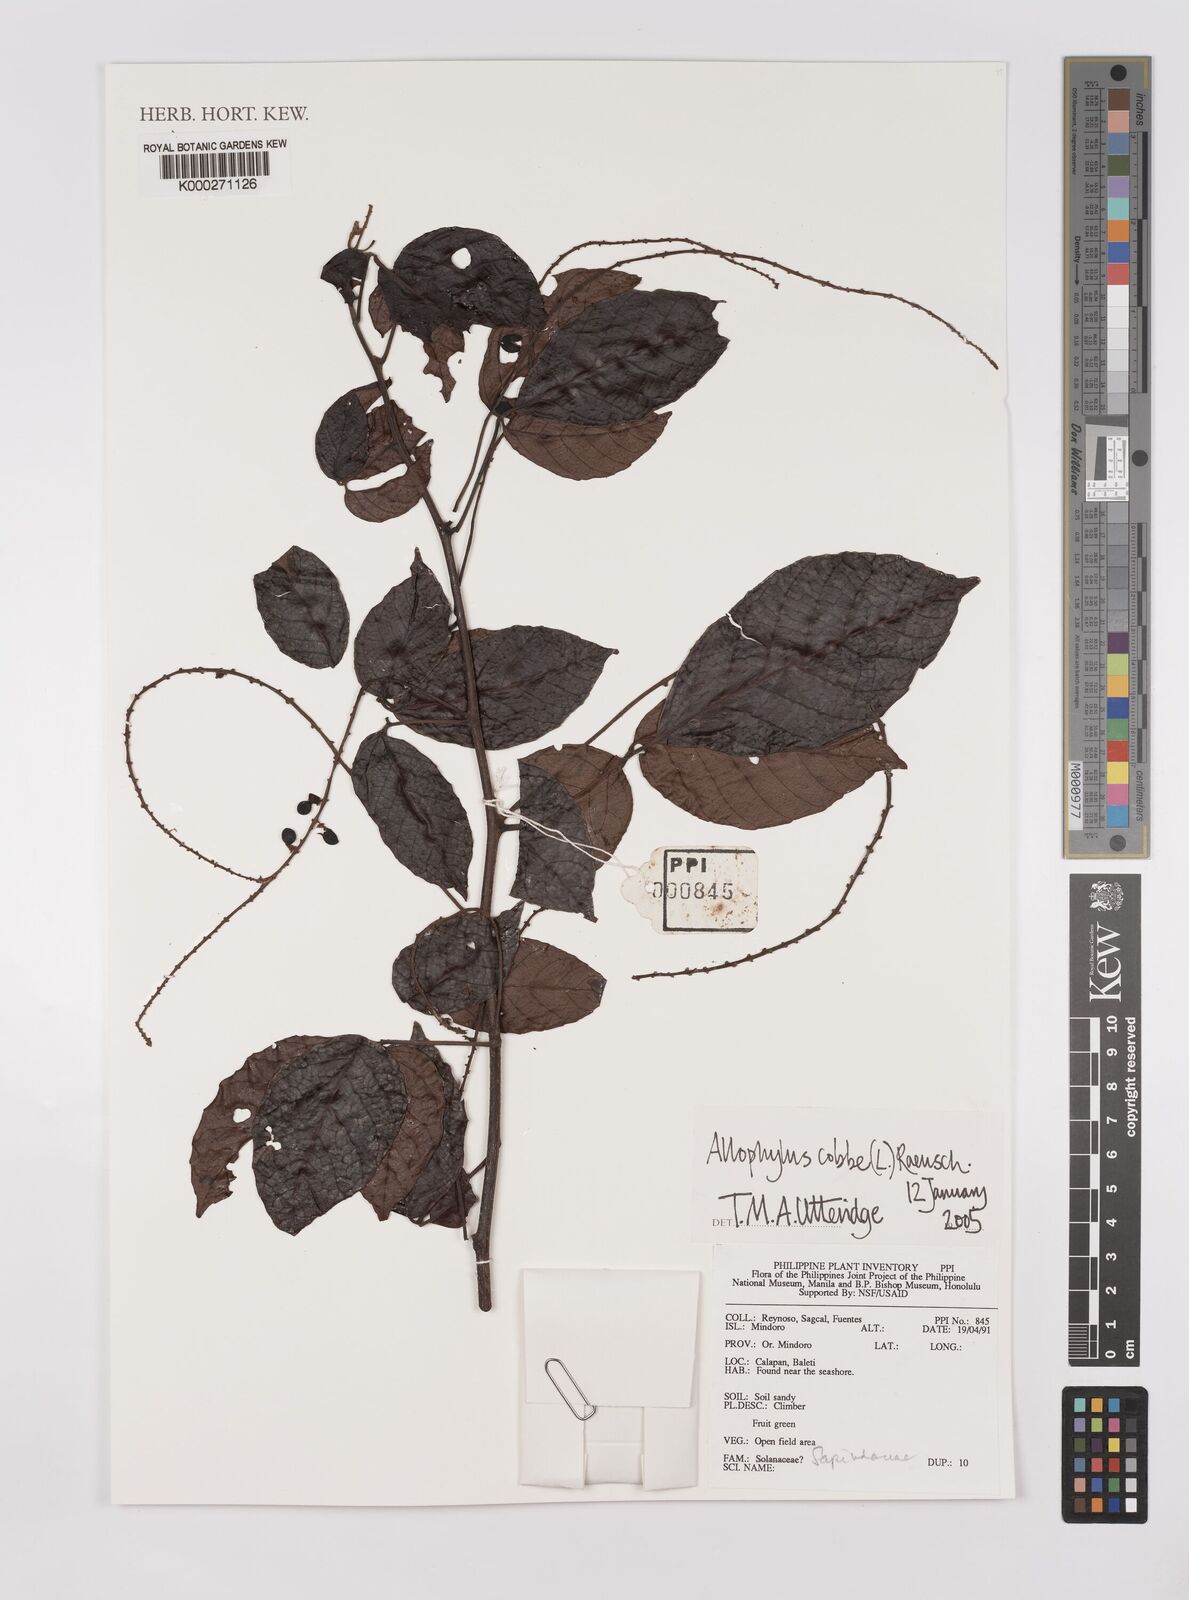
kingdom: Plantae
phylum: Tracheophyta
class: Magnoliopsida
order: Sapindales
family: Sapindaceae
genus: Allophylus
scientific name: Allophylus
